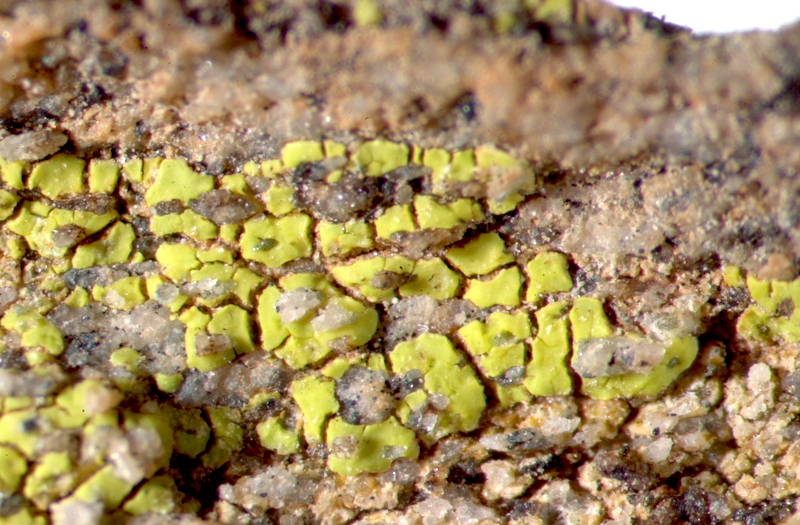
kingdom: Fungi
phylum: Ascomycota
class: Lecanoromycetes
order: Acarosporales
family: Acarosporaceae
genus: Acarospora
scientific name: Acarospora
